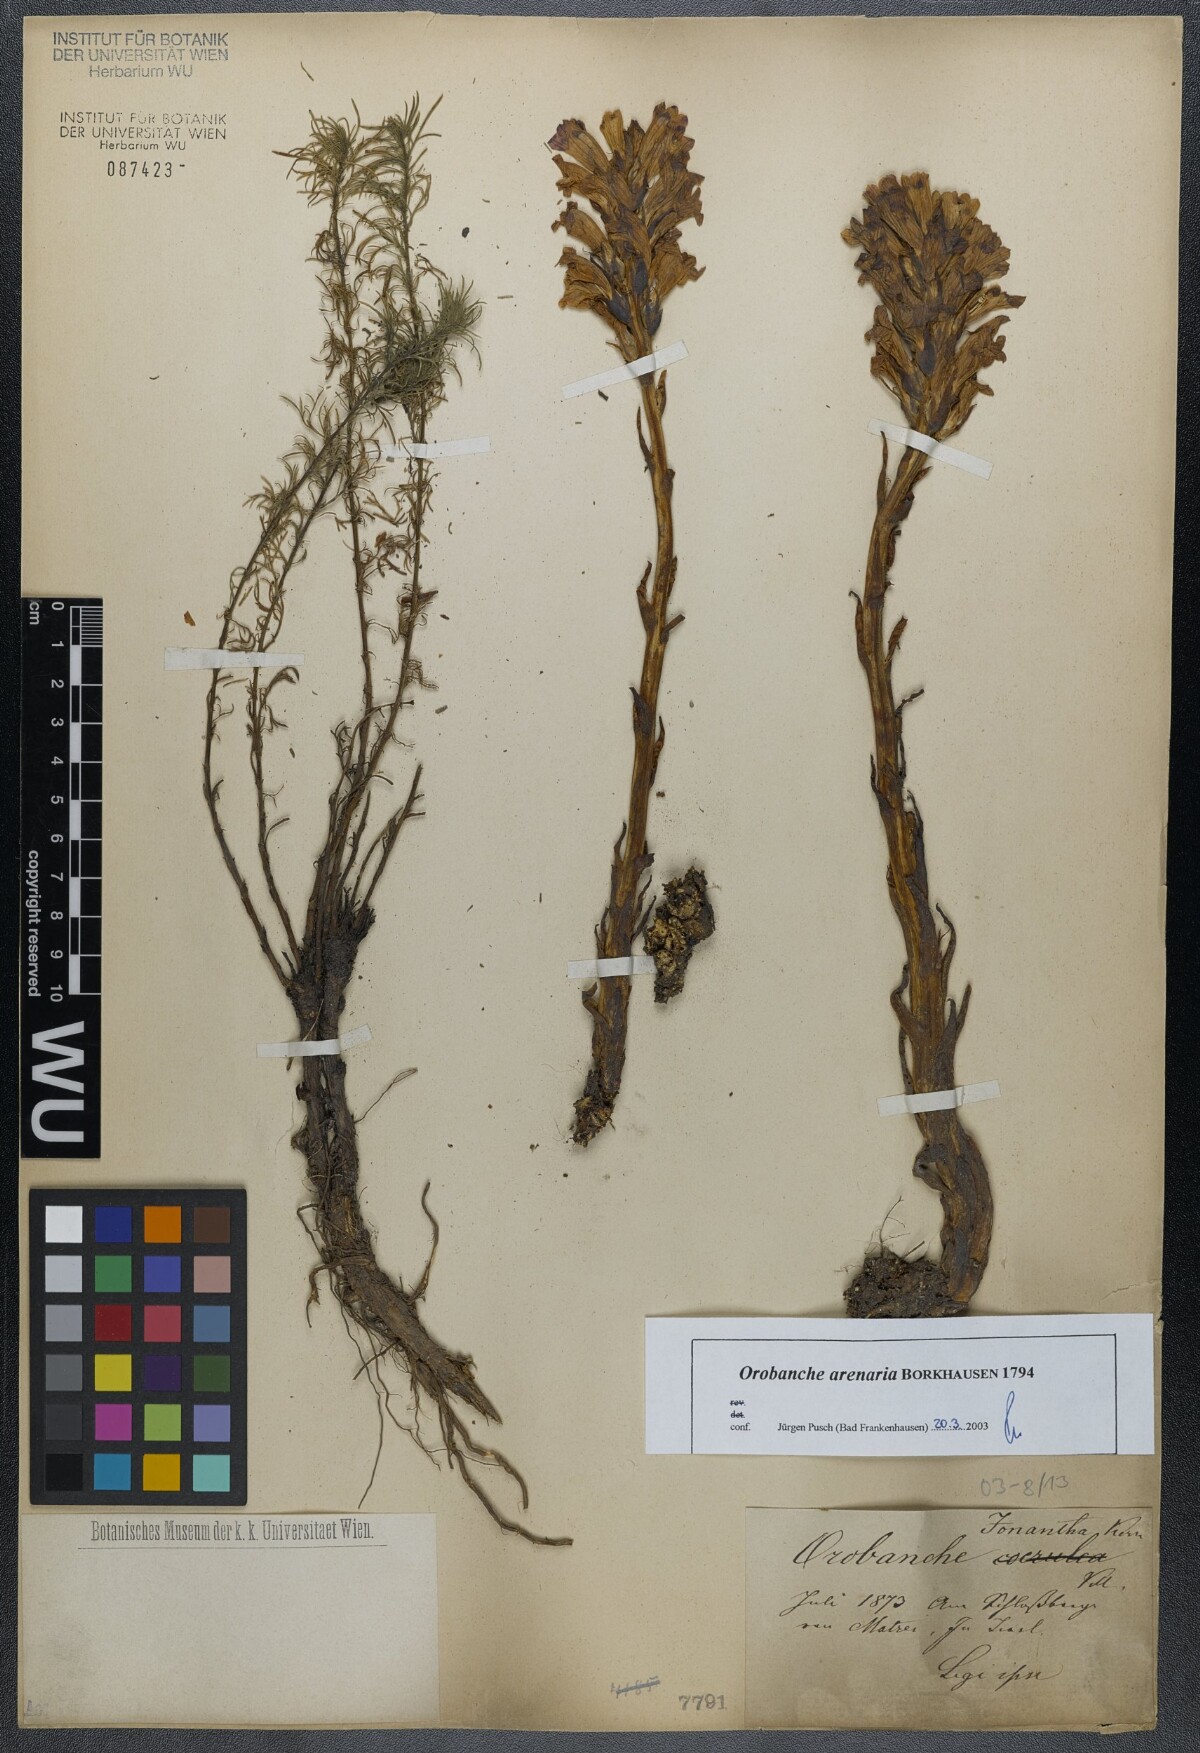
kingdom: Plantae
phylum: Tracheophyta
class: Magnoliopsida
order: Lamiales
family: Orobanchaceae
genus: Phelipanche
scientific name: Phelipanche arenaria
